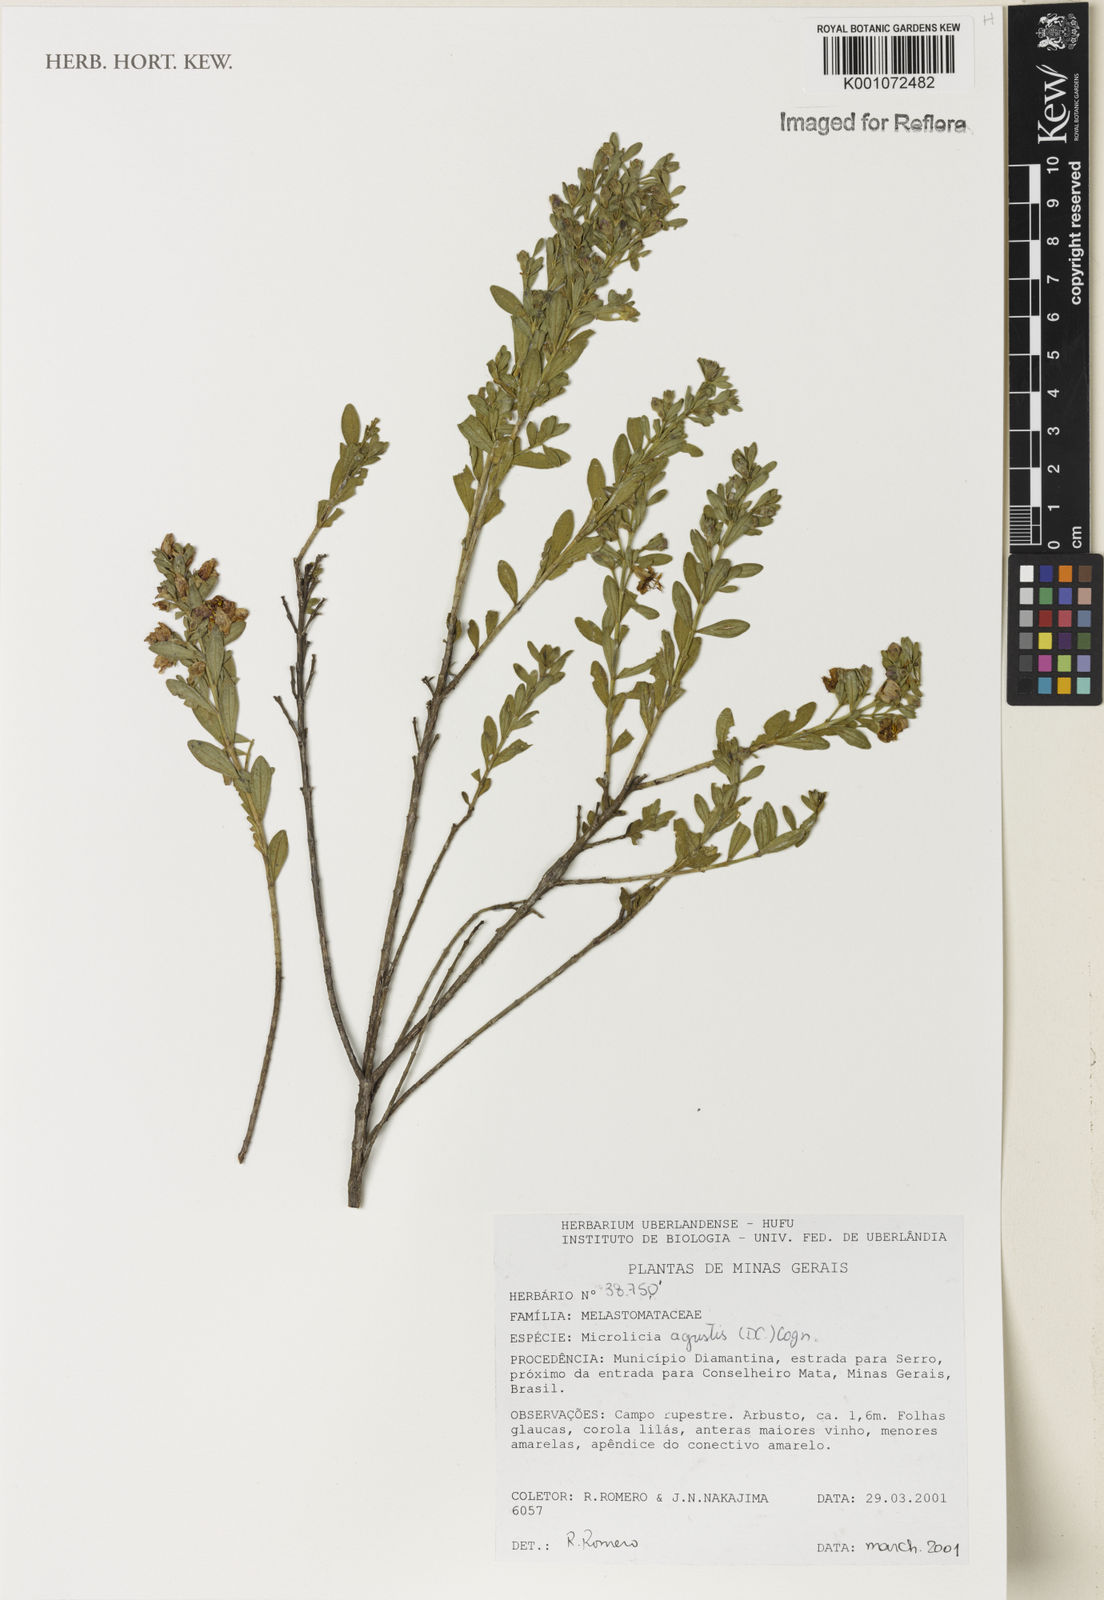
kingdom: Plantae
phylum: Tracheophyta
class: Magnoliopsida
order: Myrtales
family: Melastomataceae
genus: Microlicia
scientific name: Microlicia agrestis
